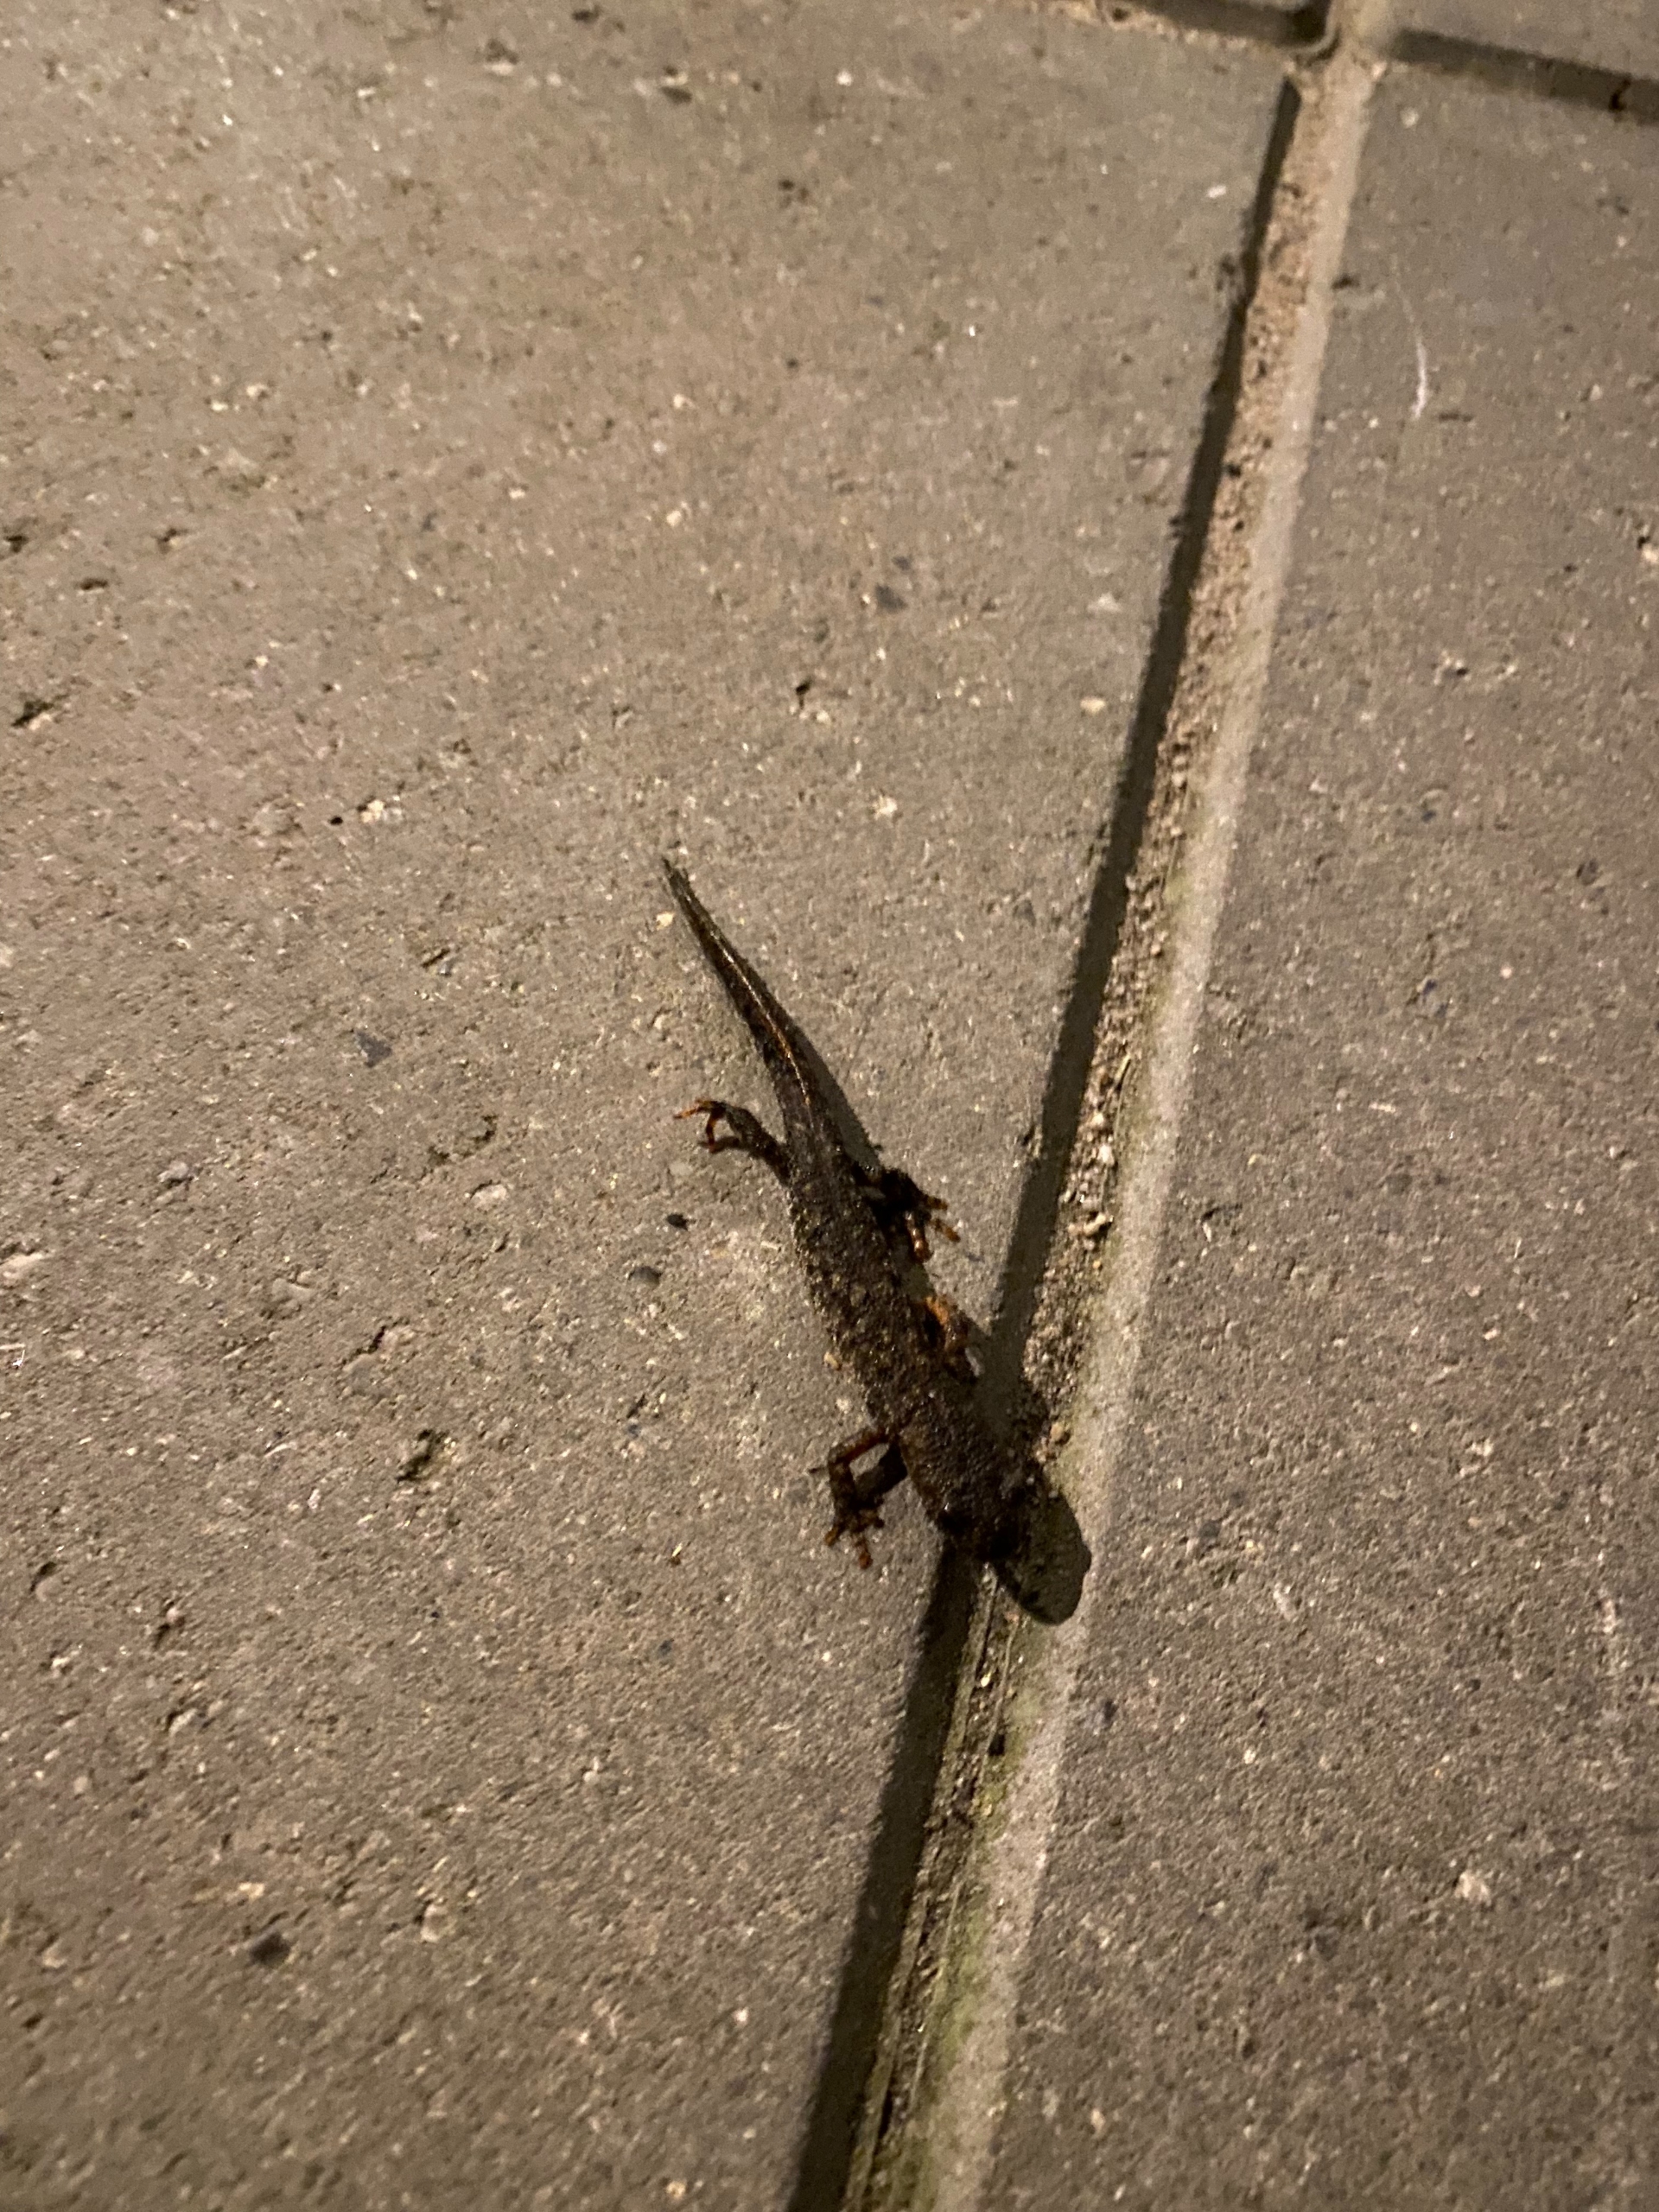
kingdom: Animalia
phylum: Chordata
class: Amphibia
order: Caudata
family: Salamandridae
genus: Triturus
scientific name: Triturus cristatus
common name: Stor vandsalamander
